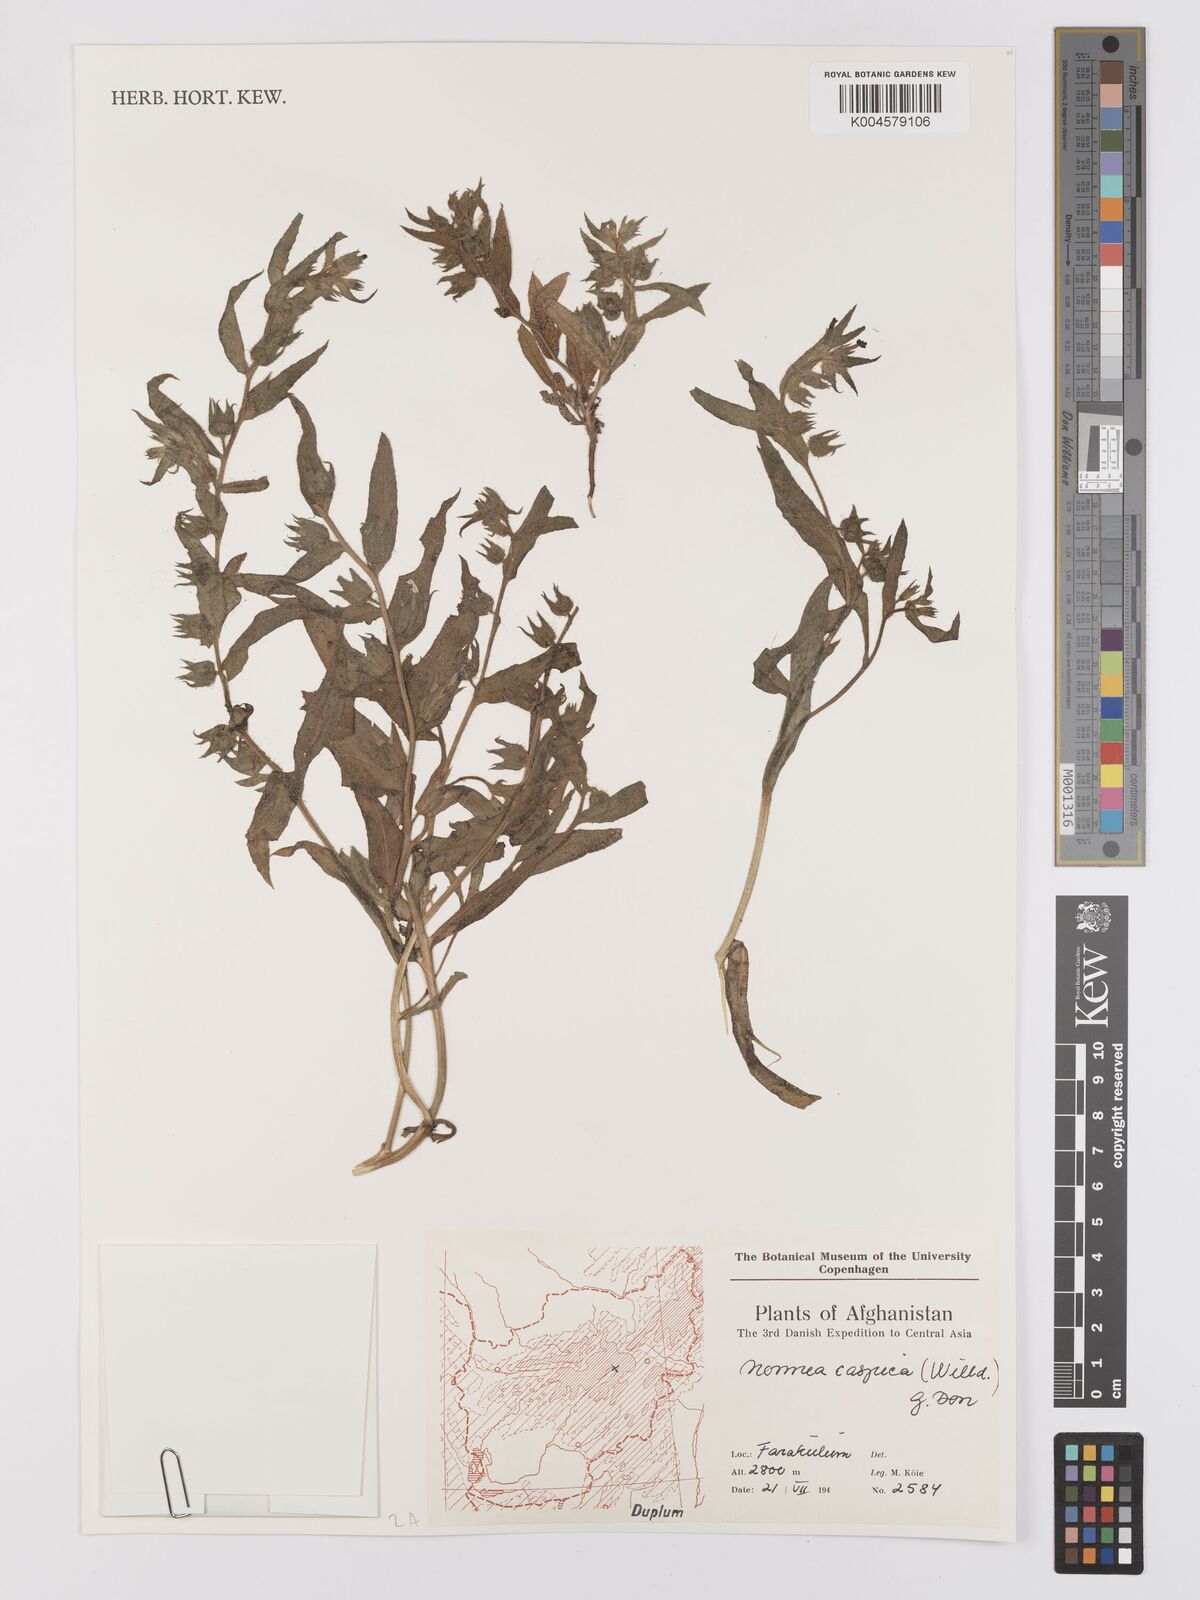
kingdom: Plantae
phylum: Tracheophyta
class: Magnoliopsida
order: Boraginales
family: Boraginaceae
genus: Nonea
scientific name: Nonea caspica
